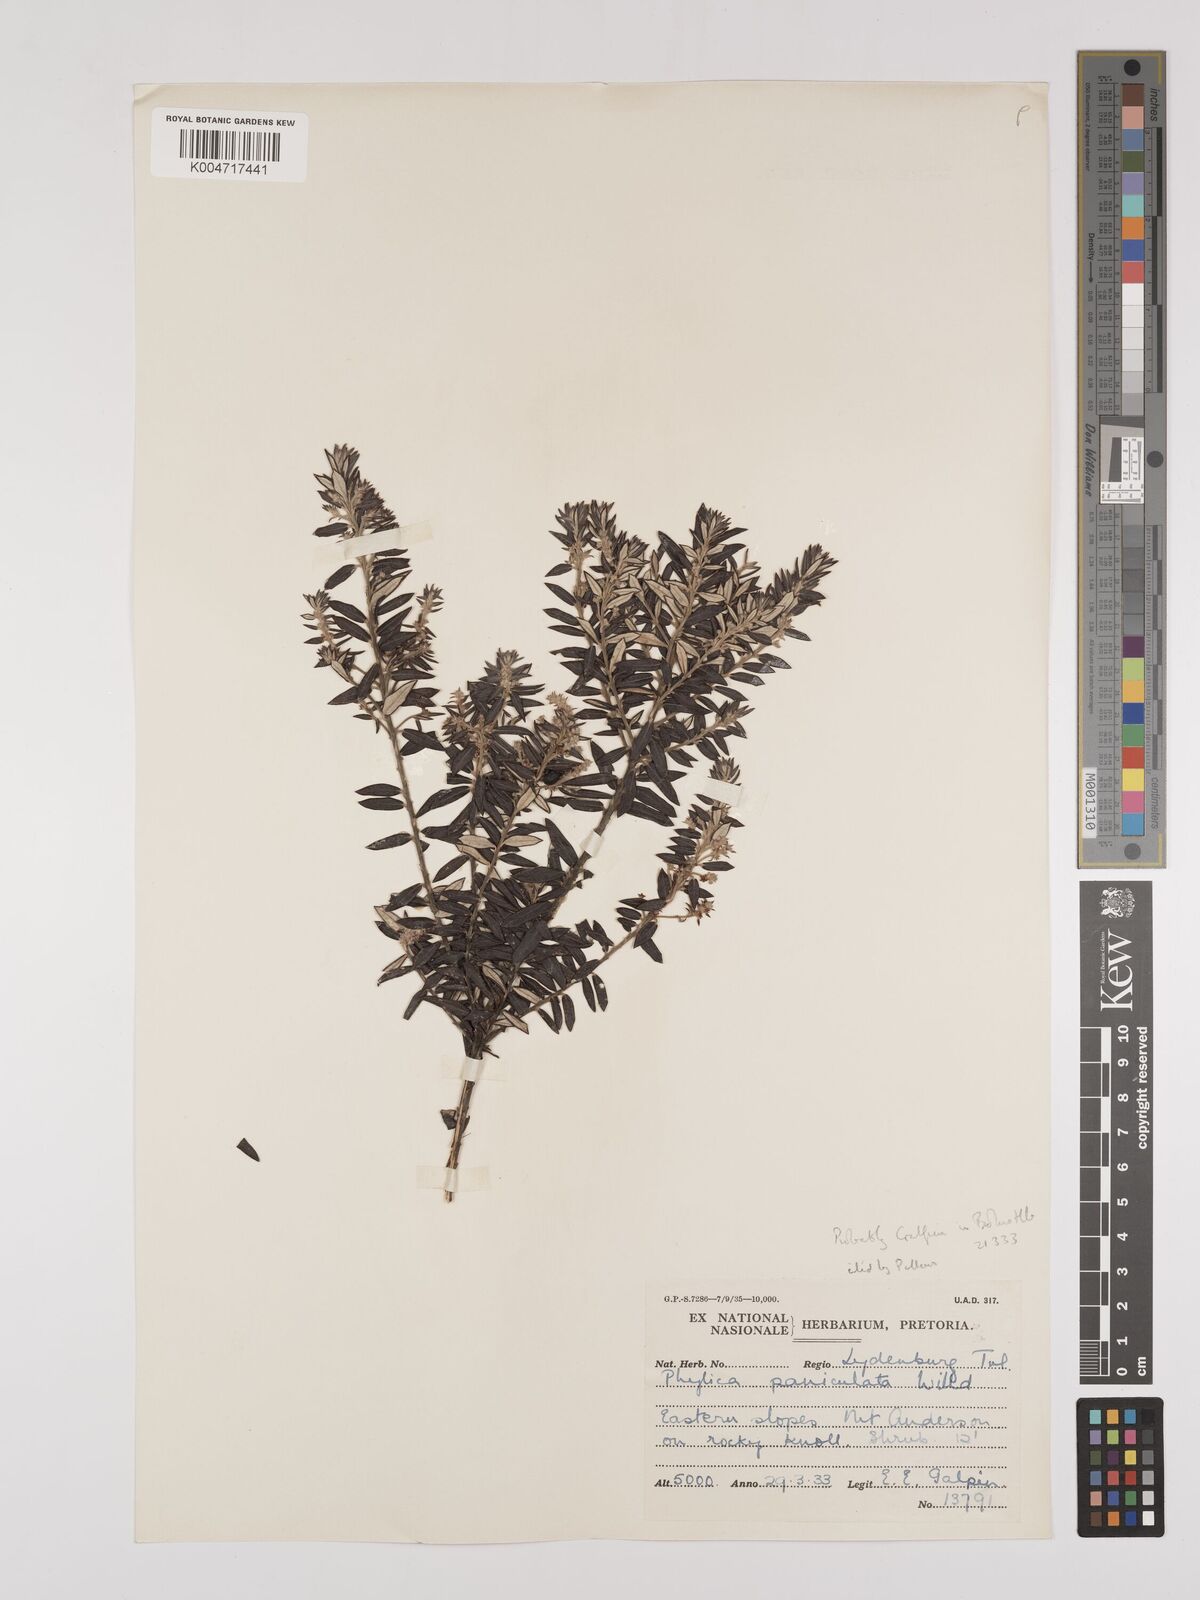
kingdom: Plantae
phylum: Tracheophyta
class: Magnoliopsida
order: Rosales
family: Rhamnaceae
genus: Phylica
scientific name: Phylica paniculata
